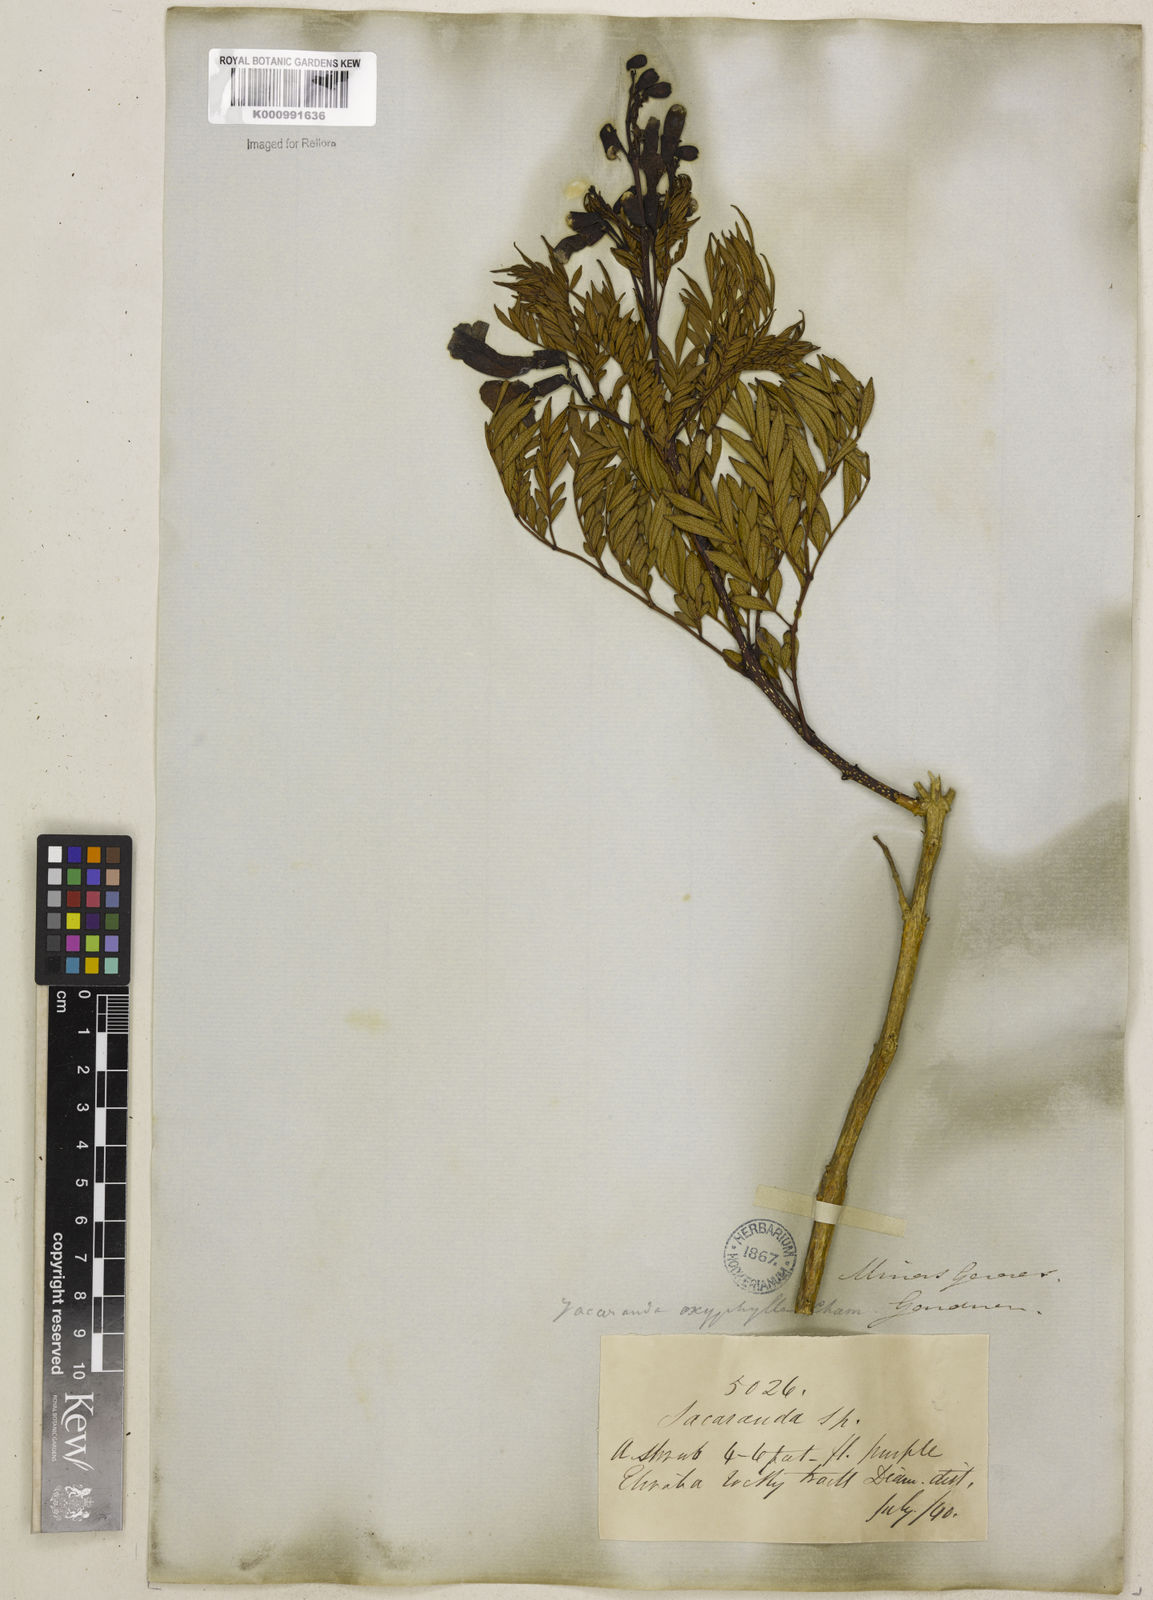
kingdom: Plantae
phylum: Tracheophyta
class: Magnoliopsida
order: Lamiales
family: Bignoniaceae
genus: Jacaranda
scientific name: Jacaranda caroba
